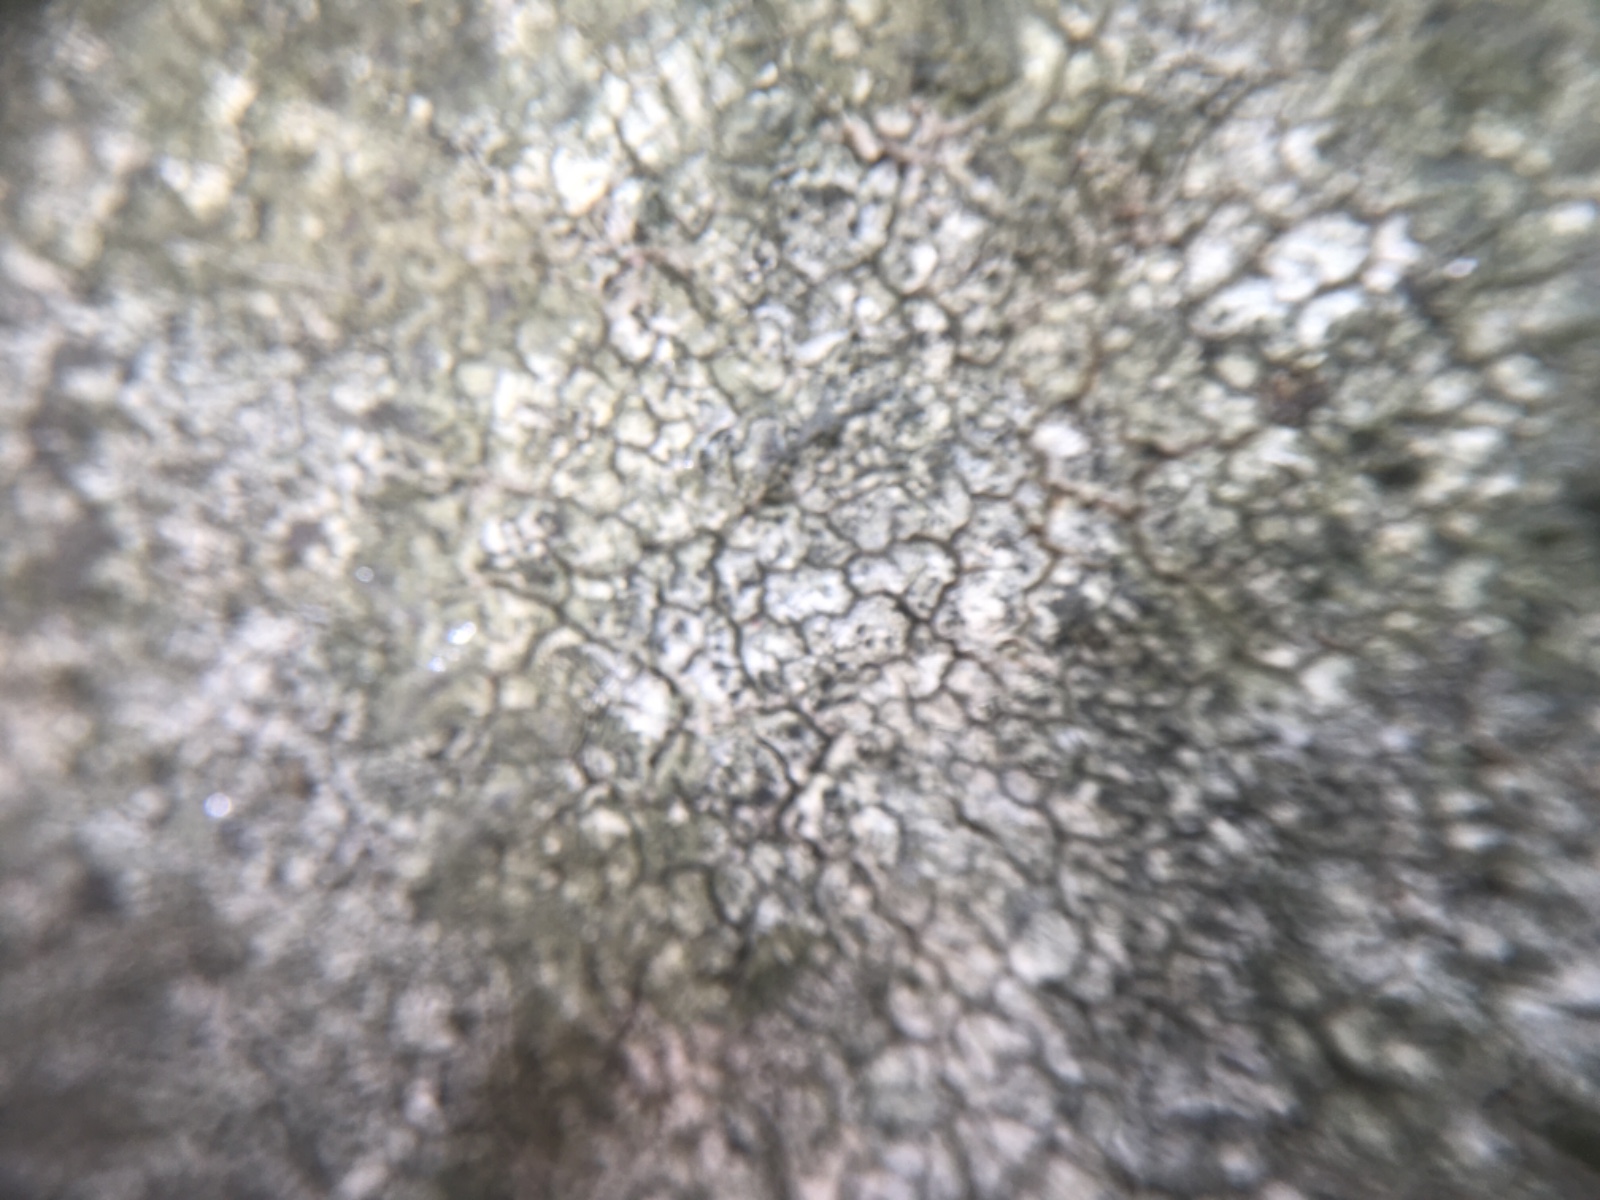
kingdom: Fungi
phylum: Ascomycota
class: Lecanoromycetes
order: Pertusariales
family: Megasporaceae
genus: Circinaria
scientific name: Circinaria
